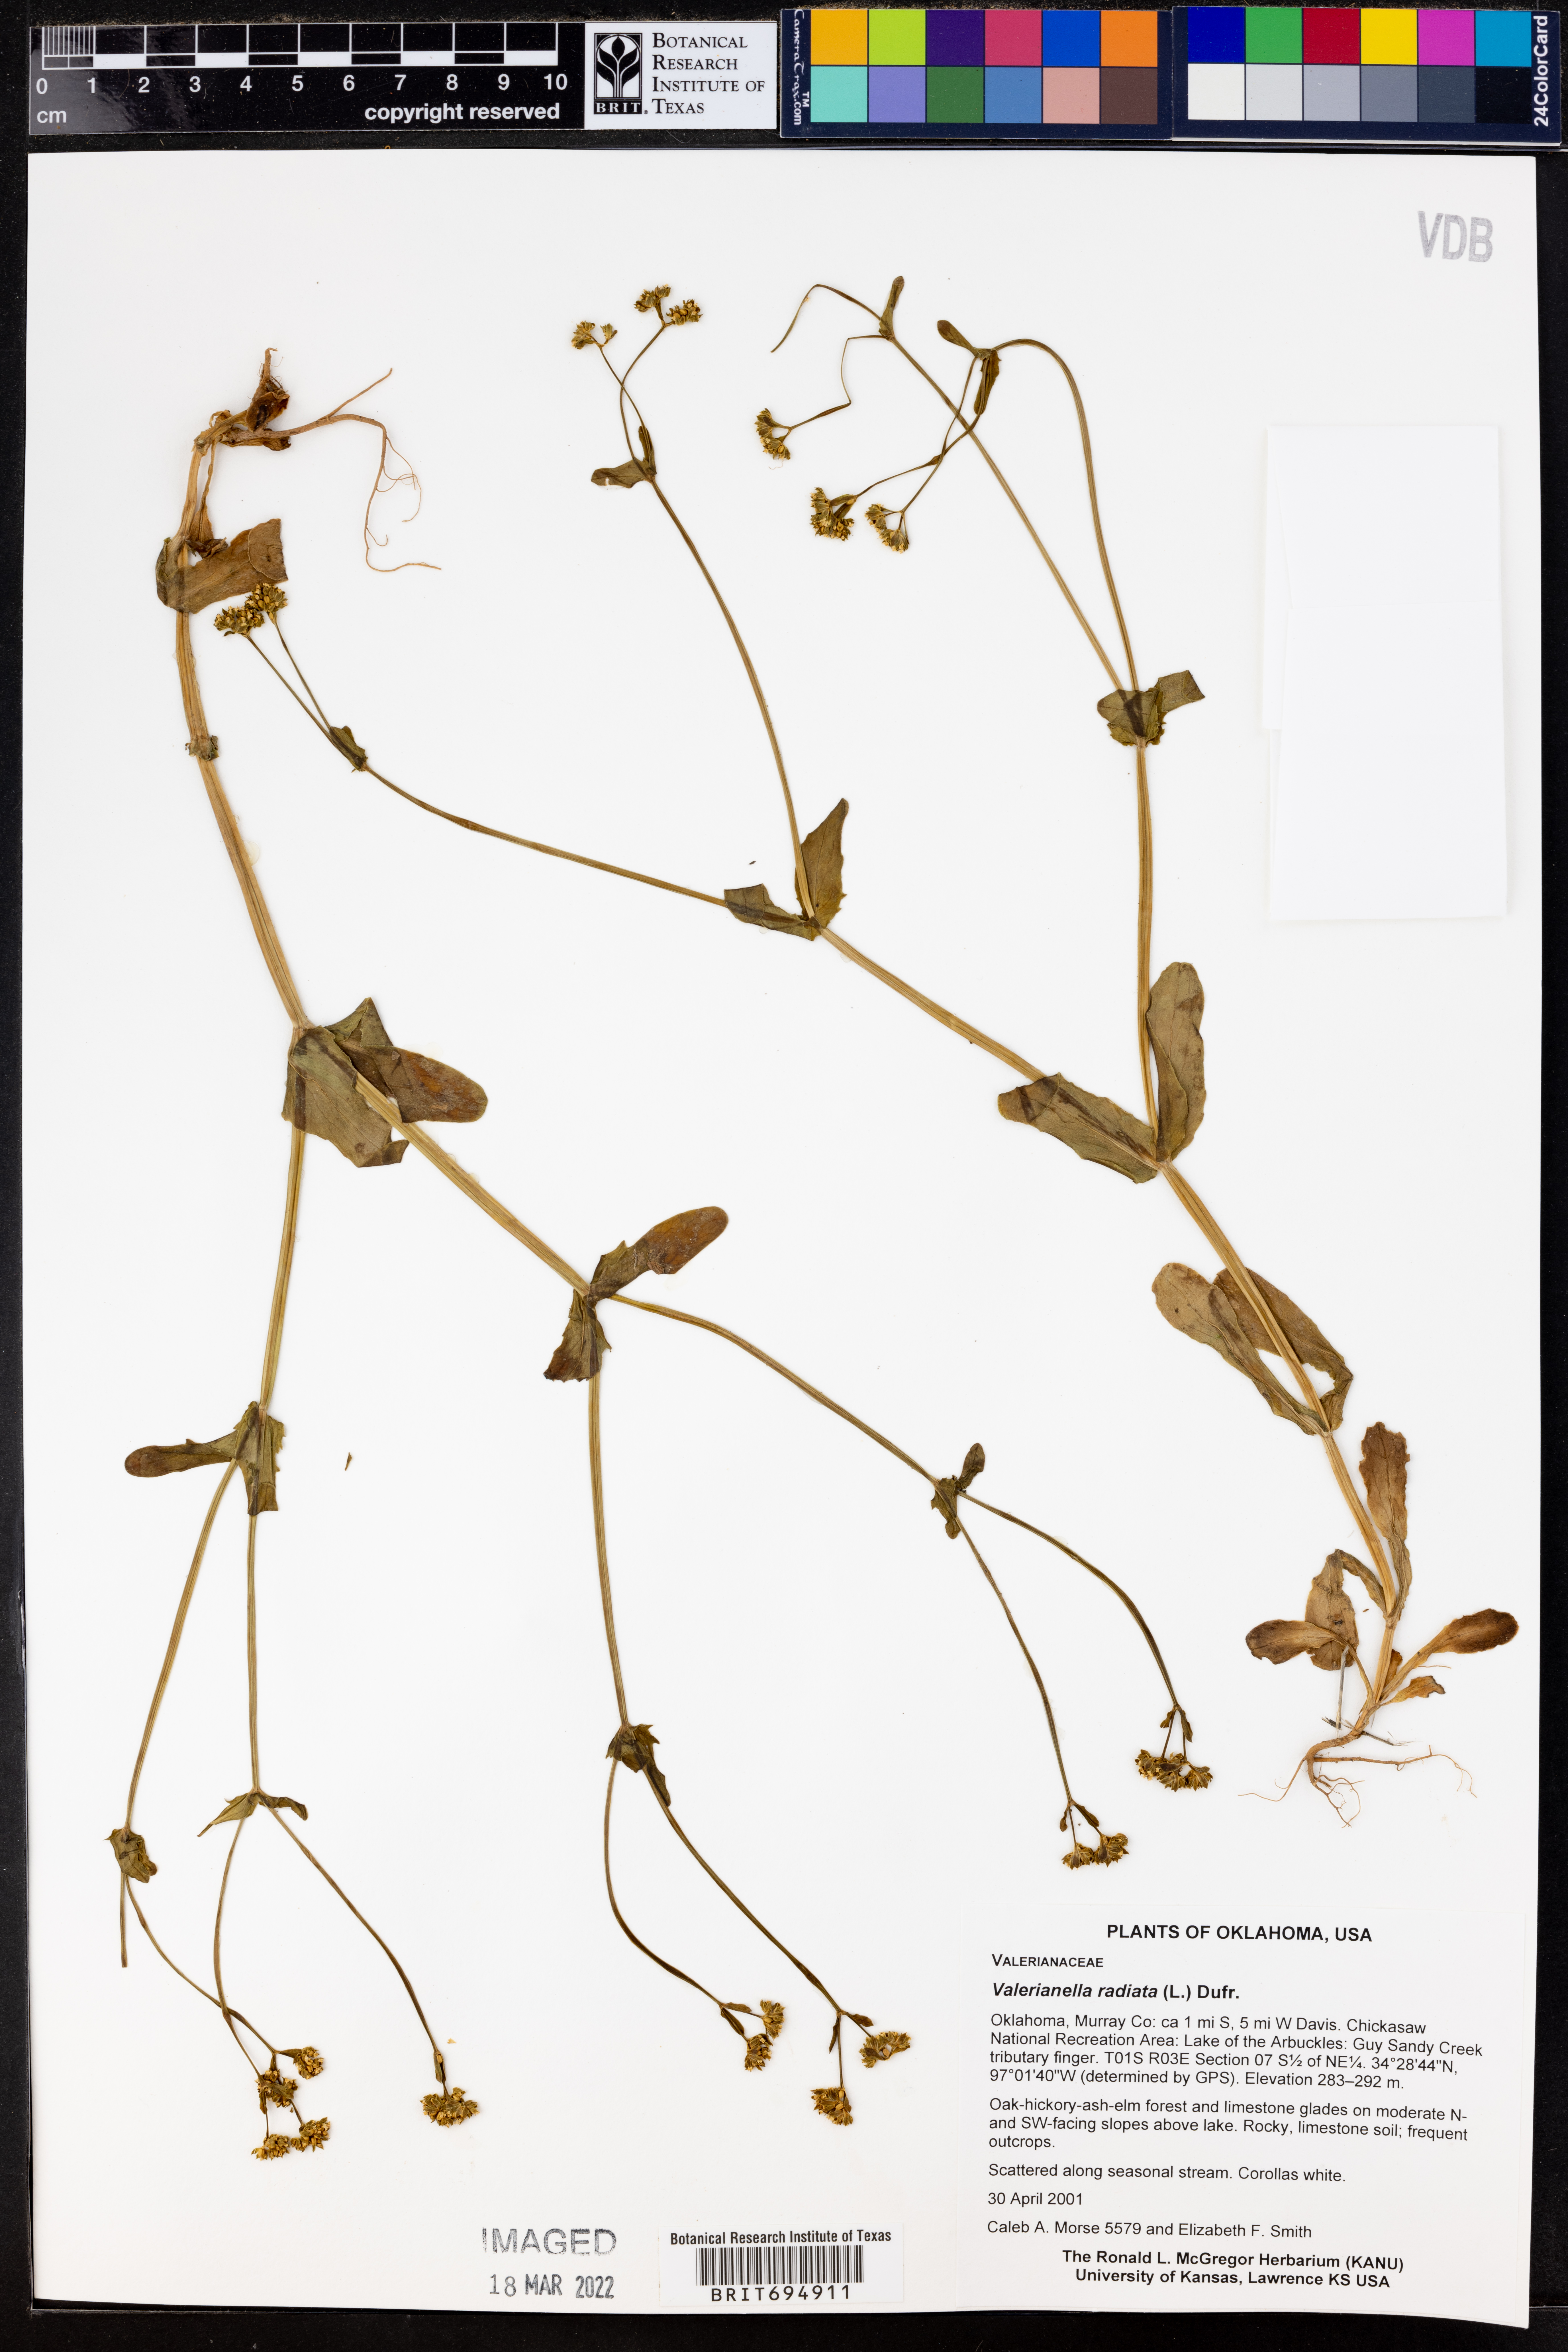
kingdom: Plantae
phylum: Tracheophyta
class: Magnoliopsida
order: Dipsacales
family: Caprifoliaceae
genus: Valerianella
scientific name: Valerianella radiata
